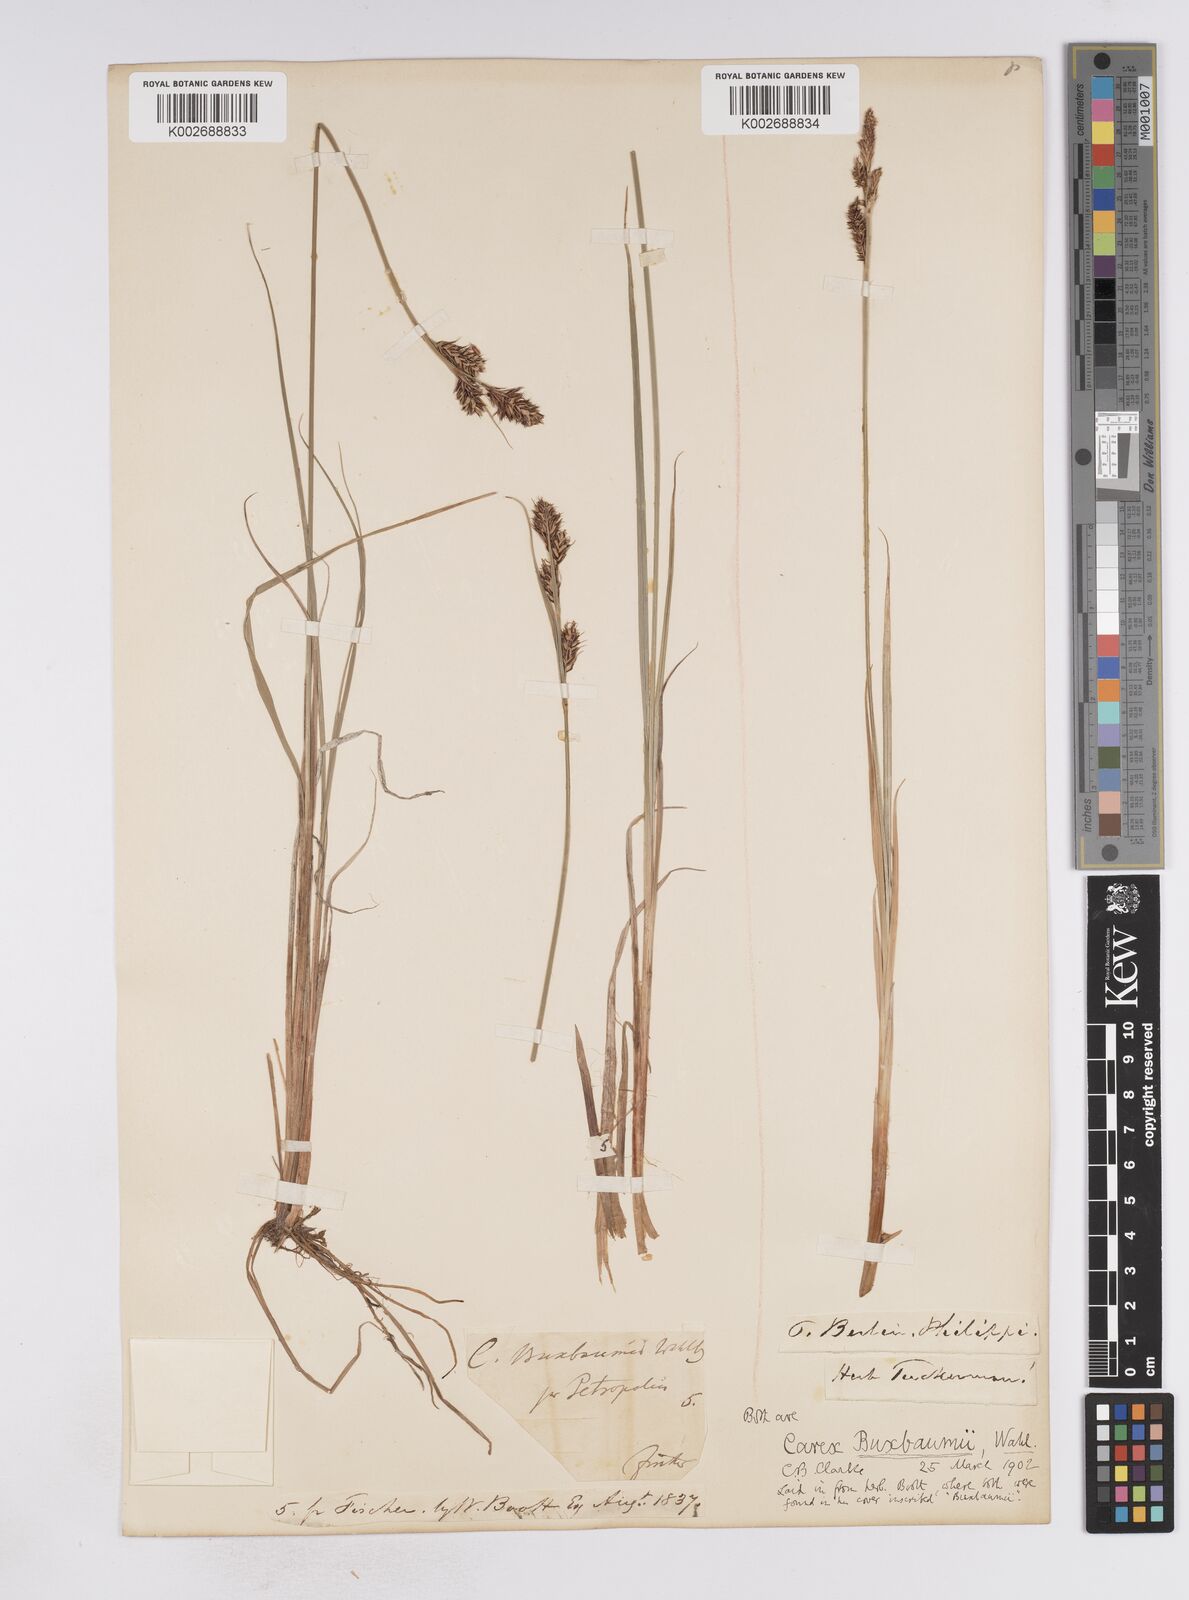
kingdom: Plantae
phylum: Tracheophyta
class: Liliopsida
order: Poales
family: Cyperaceae
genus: Carex
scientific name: Carex buxbaumii
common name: Club sedge
